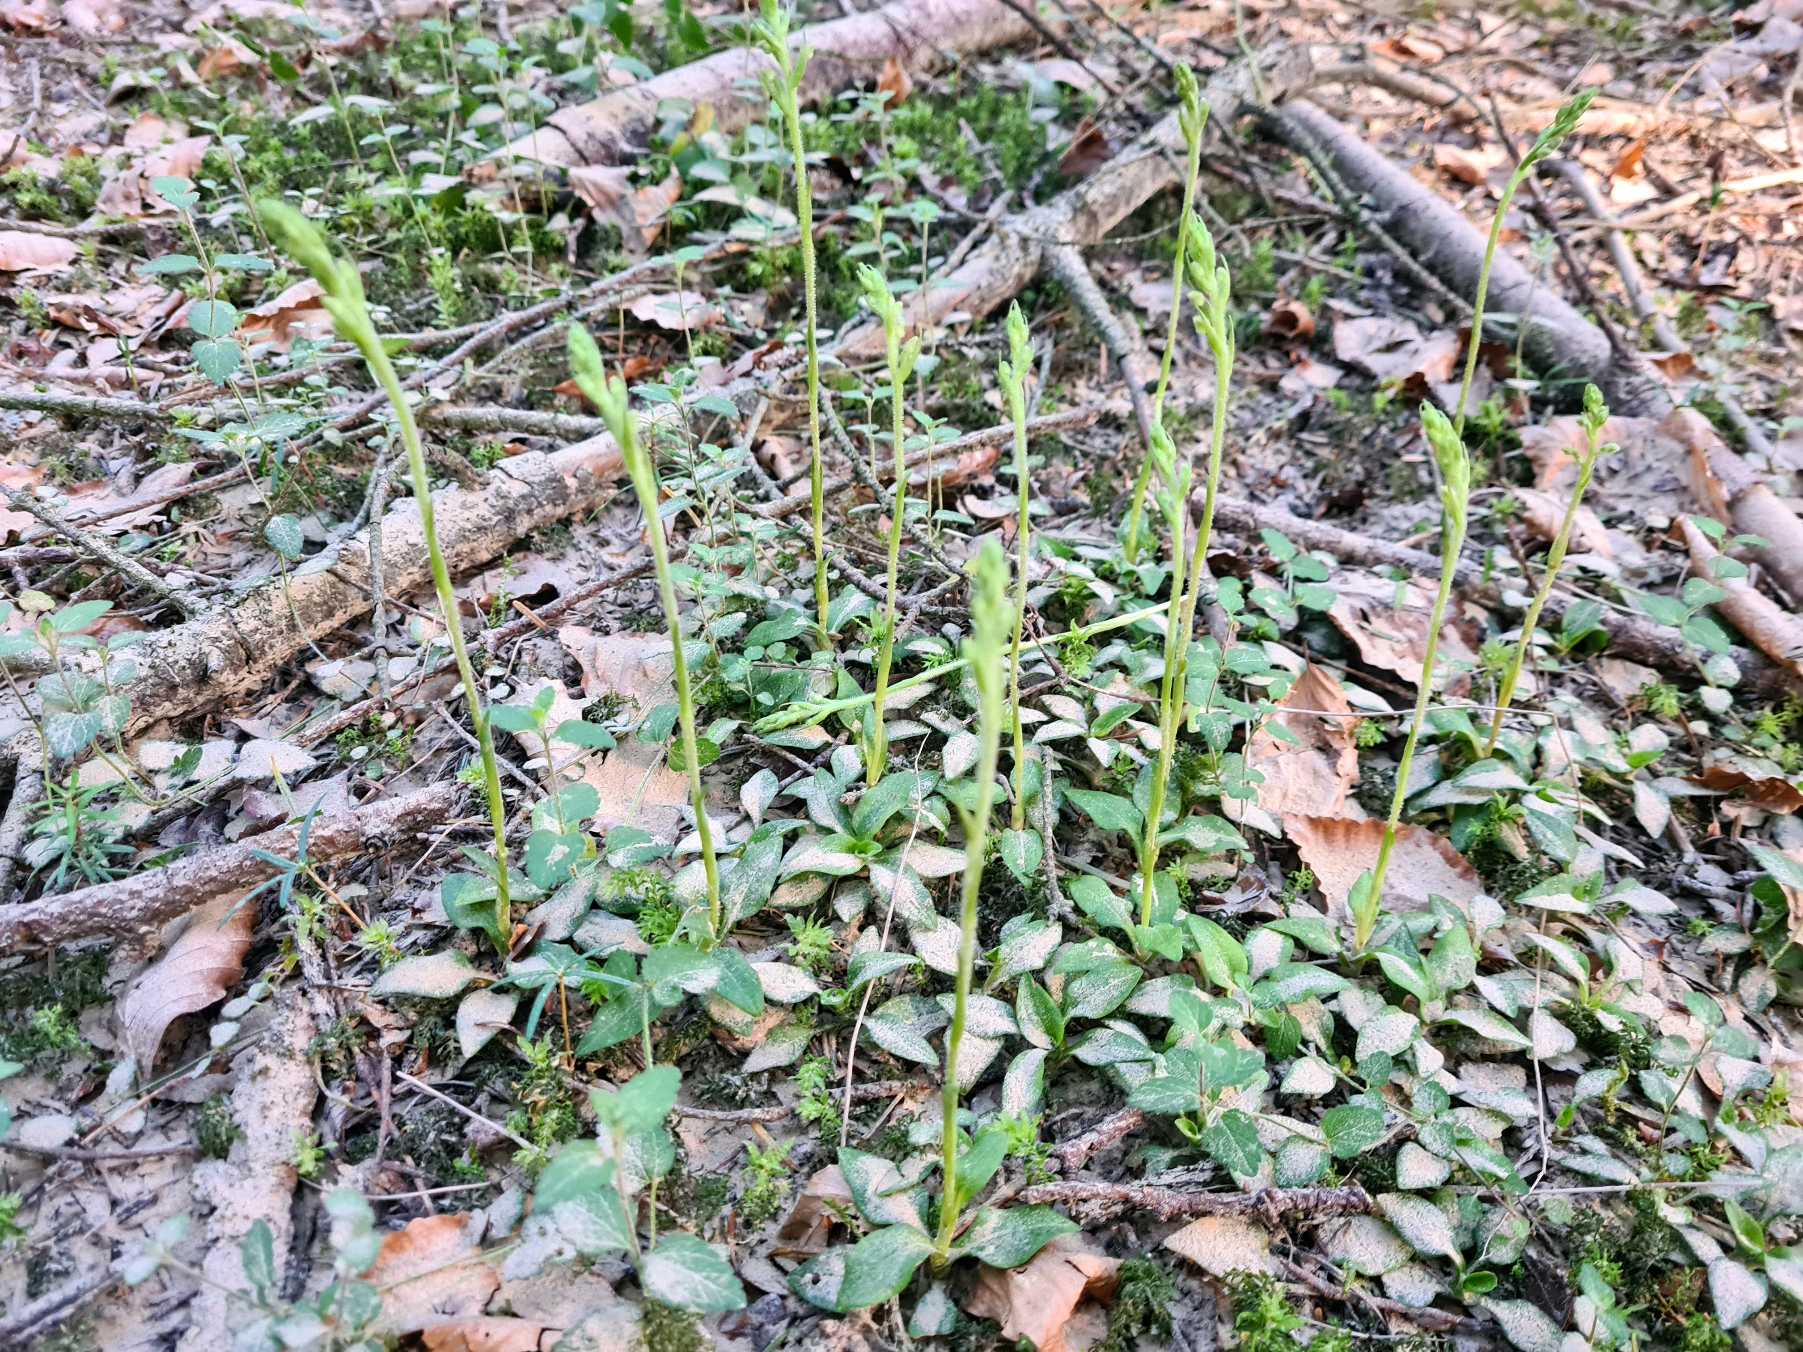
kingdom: Plantae
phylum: Tracheophyta
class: Liliopsida
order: Asparagales
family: Orchidaceae
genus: Goodyera
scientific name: Goodyera repens
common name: Knærod
